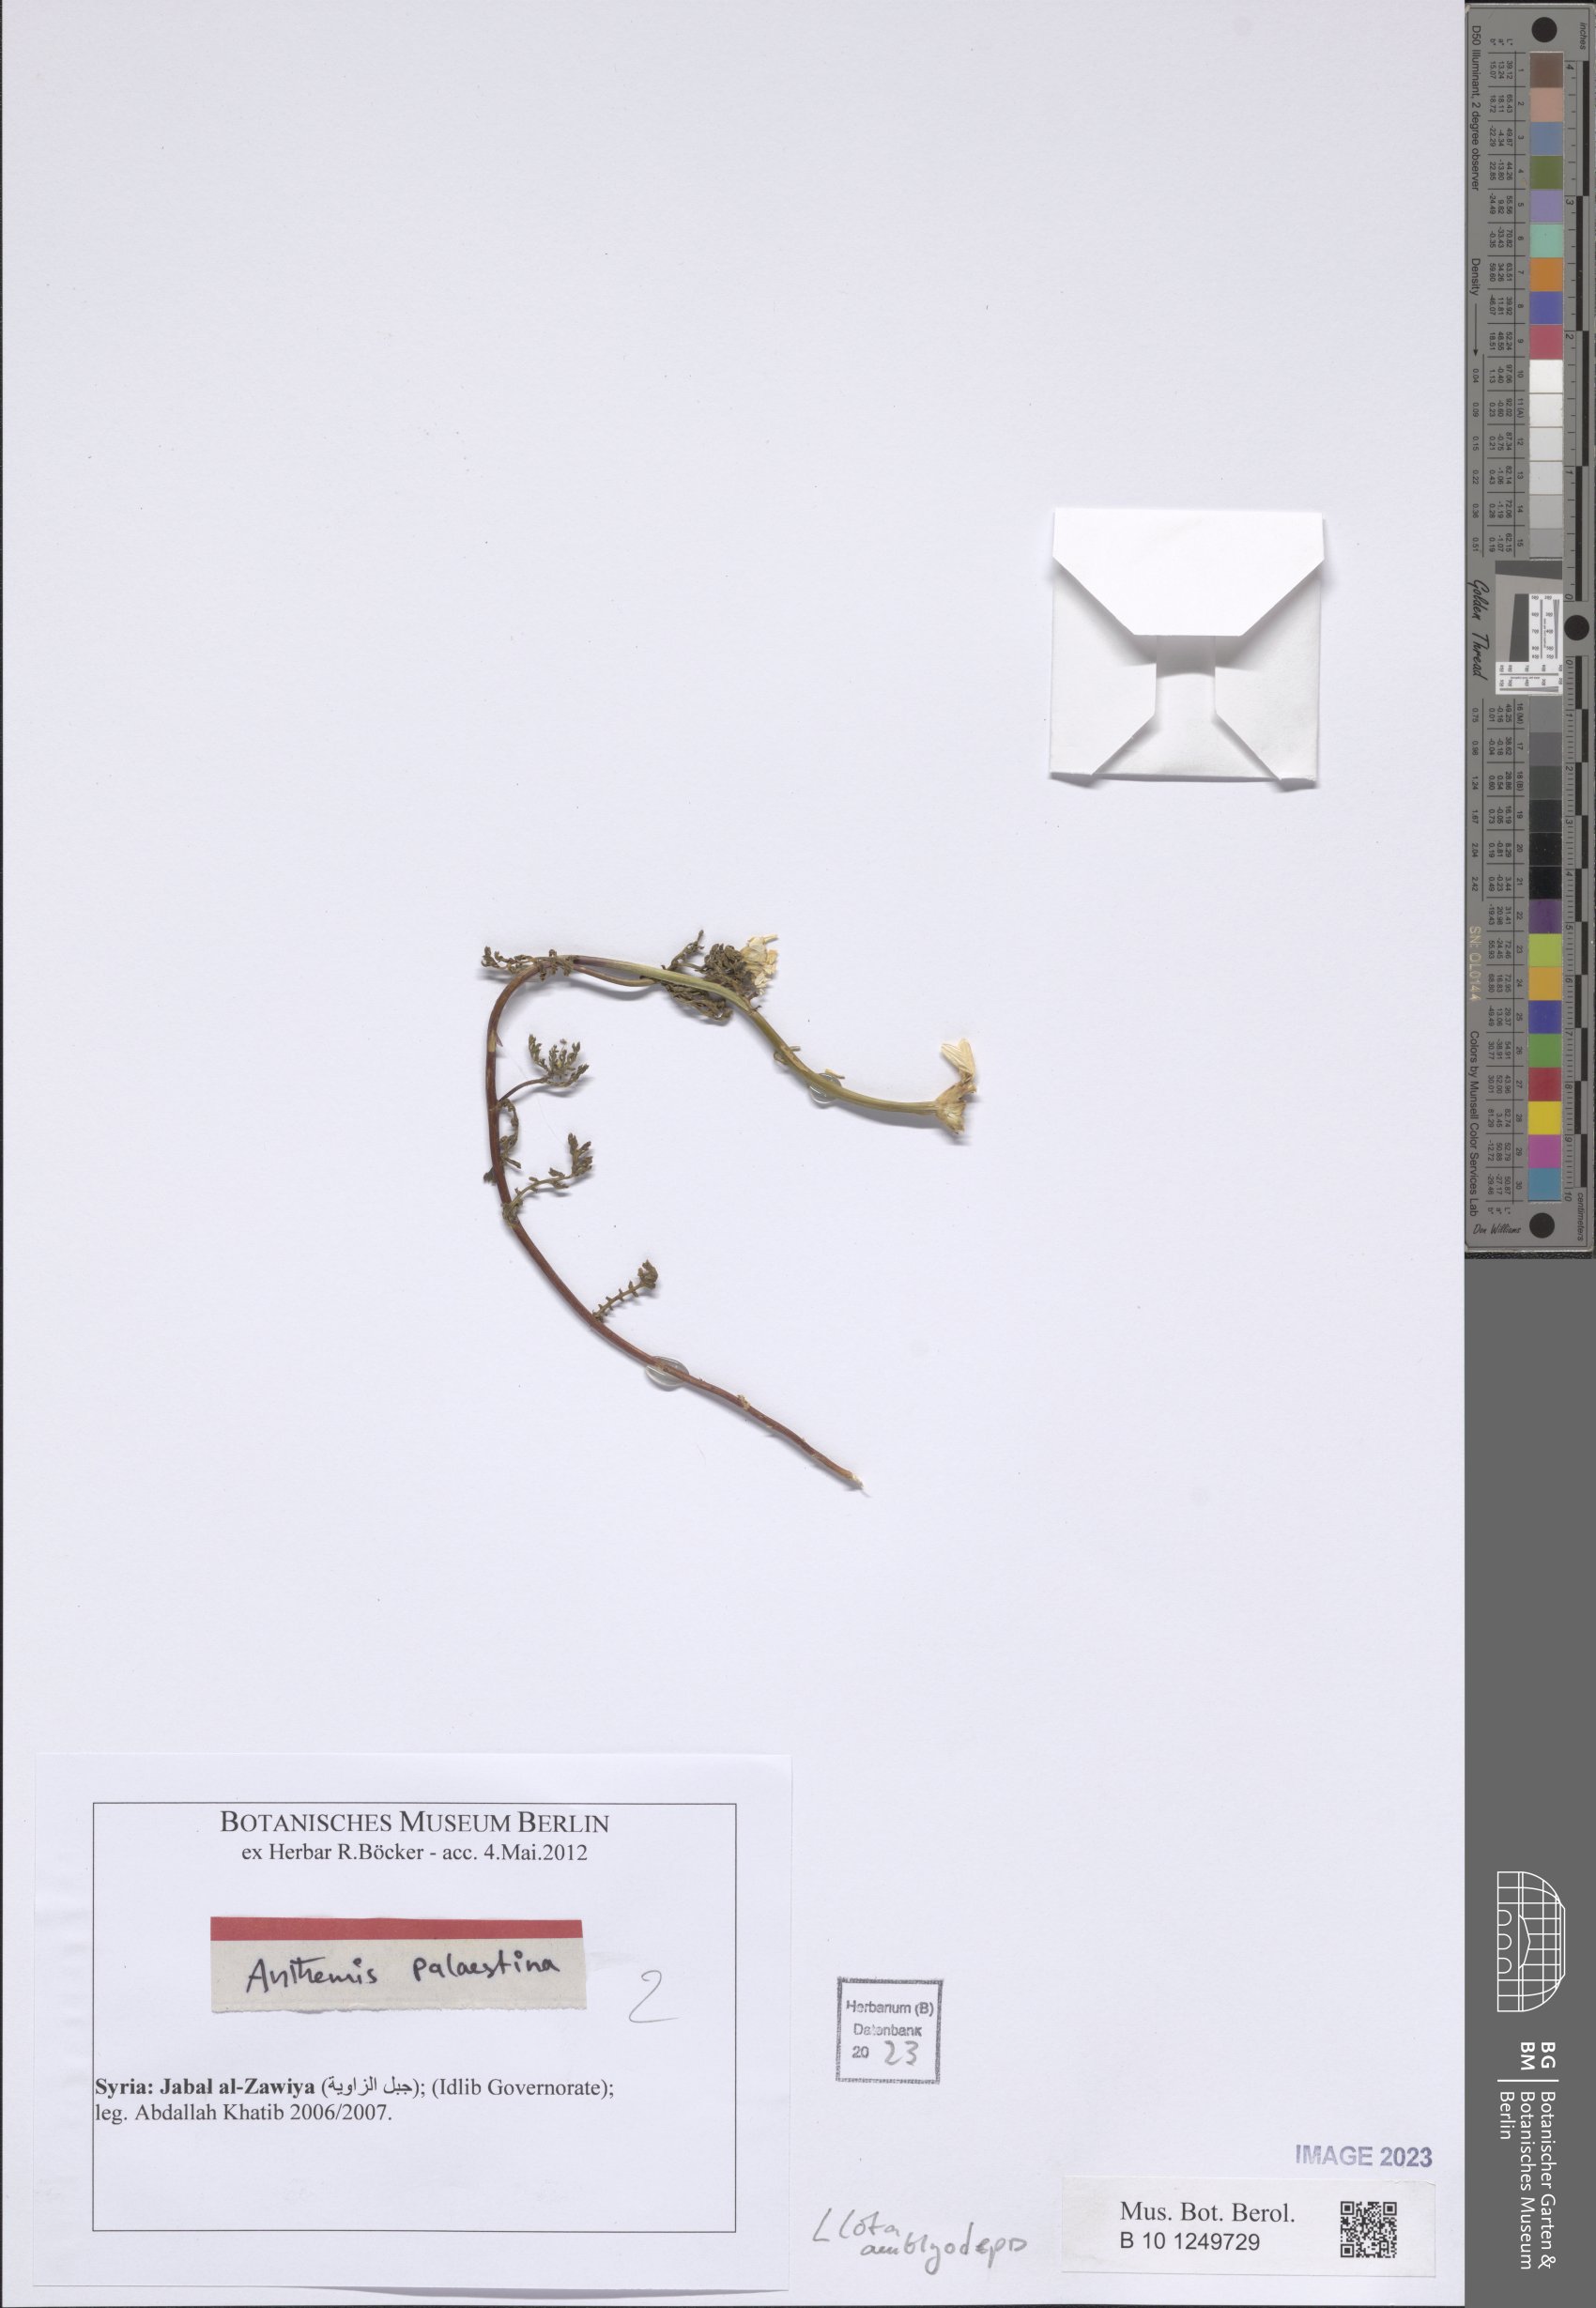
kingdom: Plantae
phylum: Tracheophyta
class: Magnoliopsida
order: Asterales
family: Asteraceae
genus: Cota
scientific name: Cota amblyolepis
